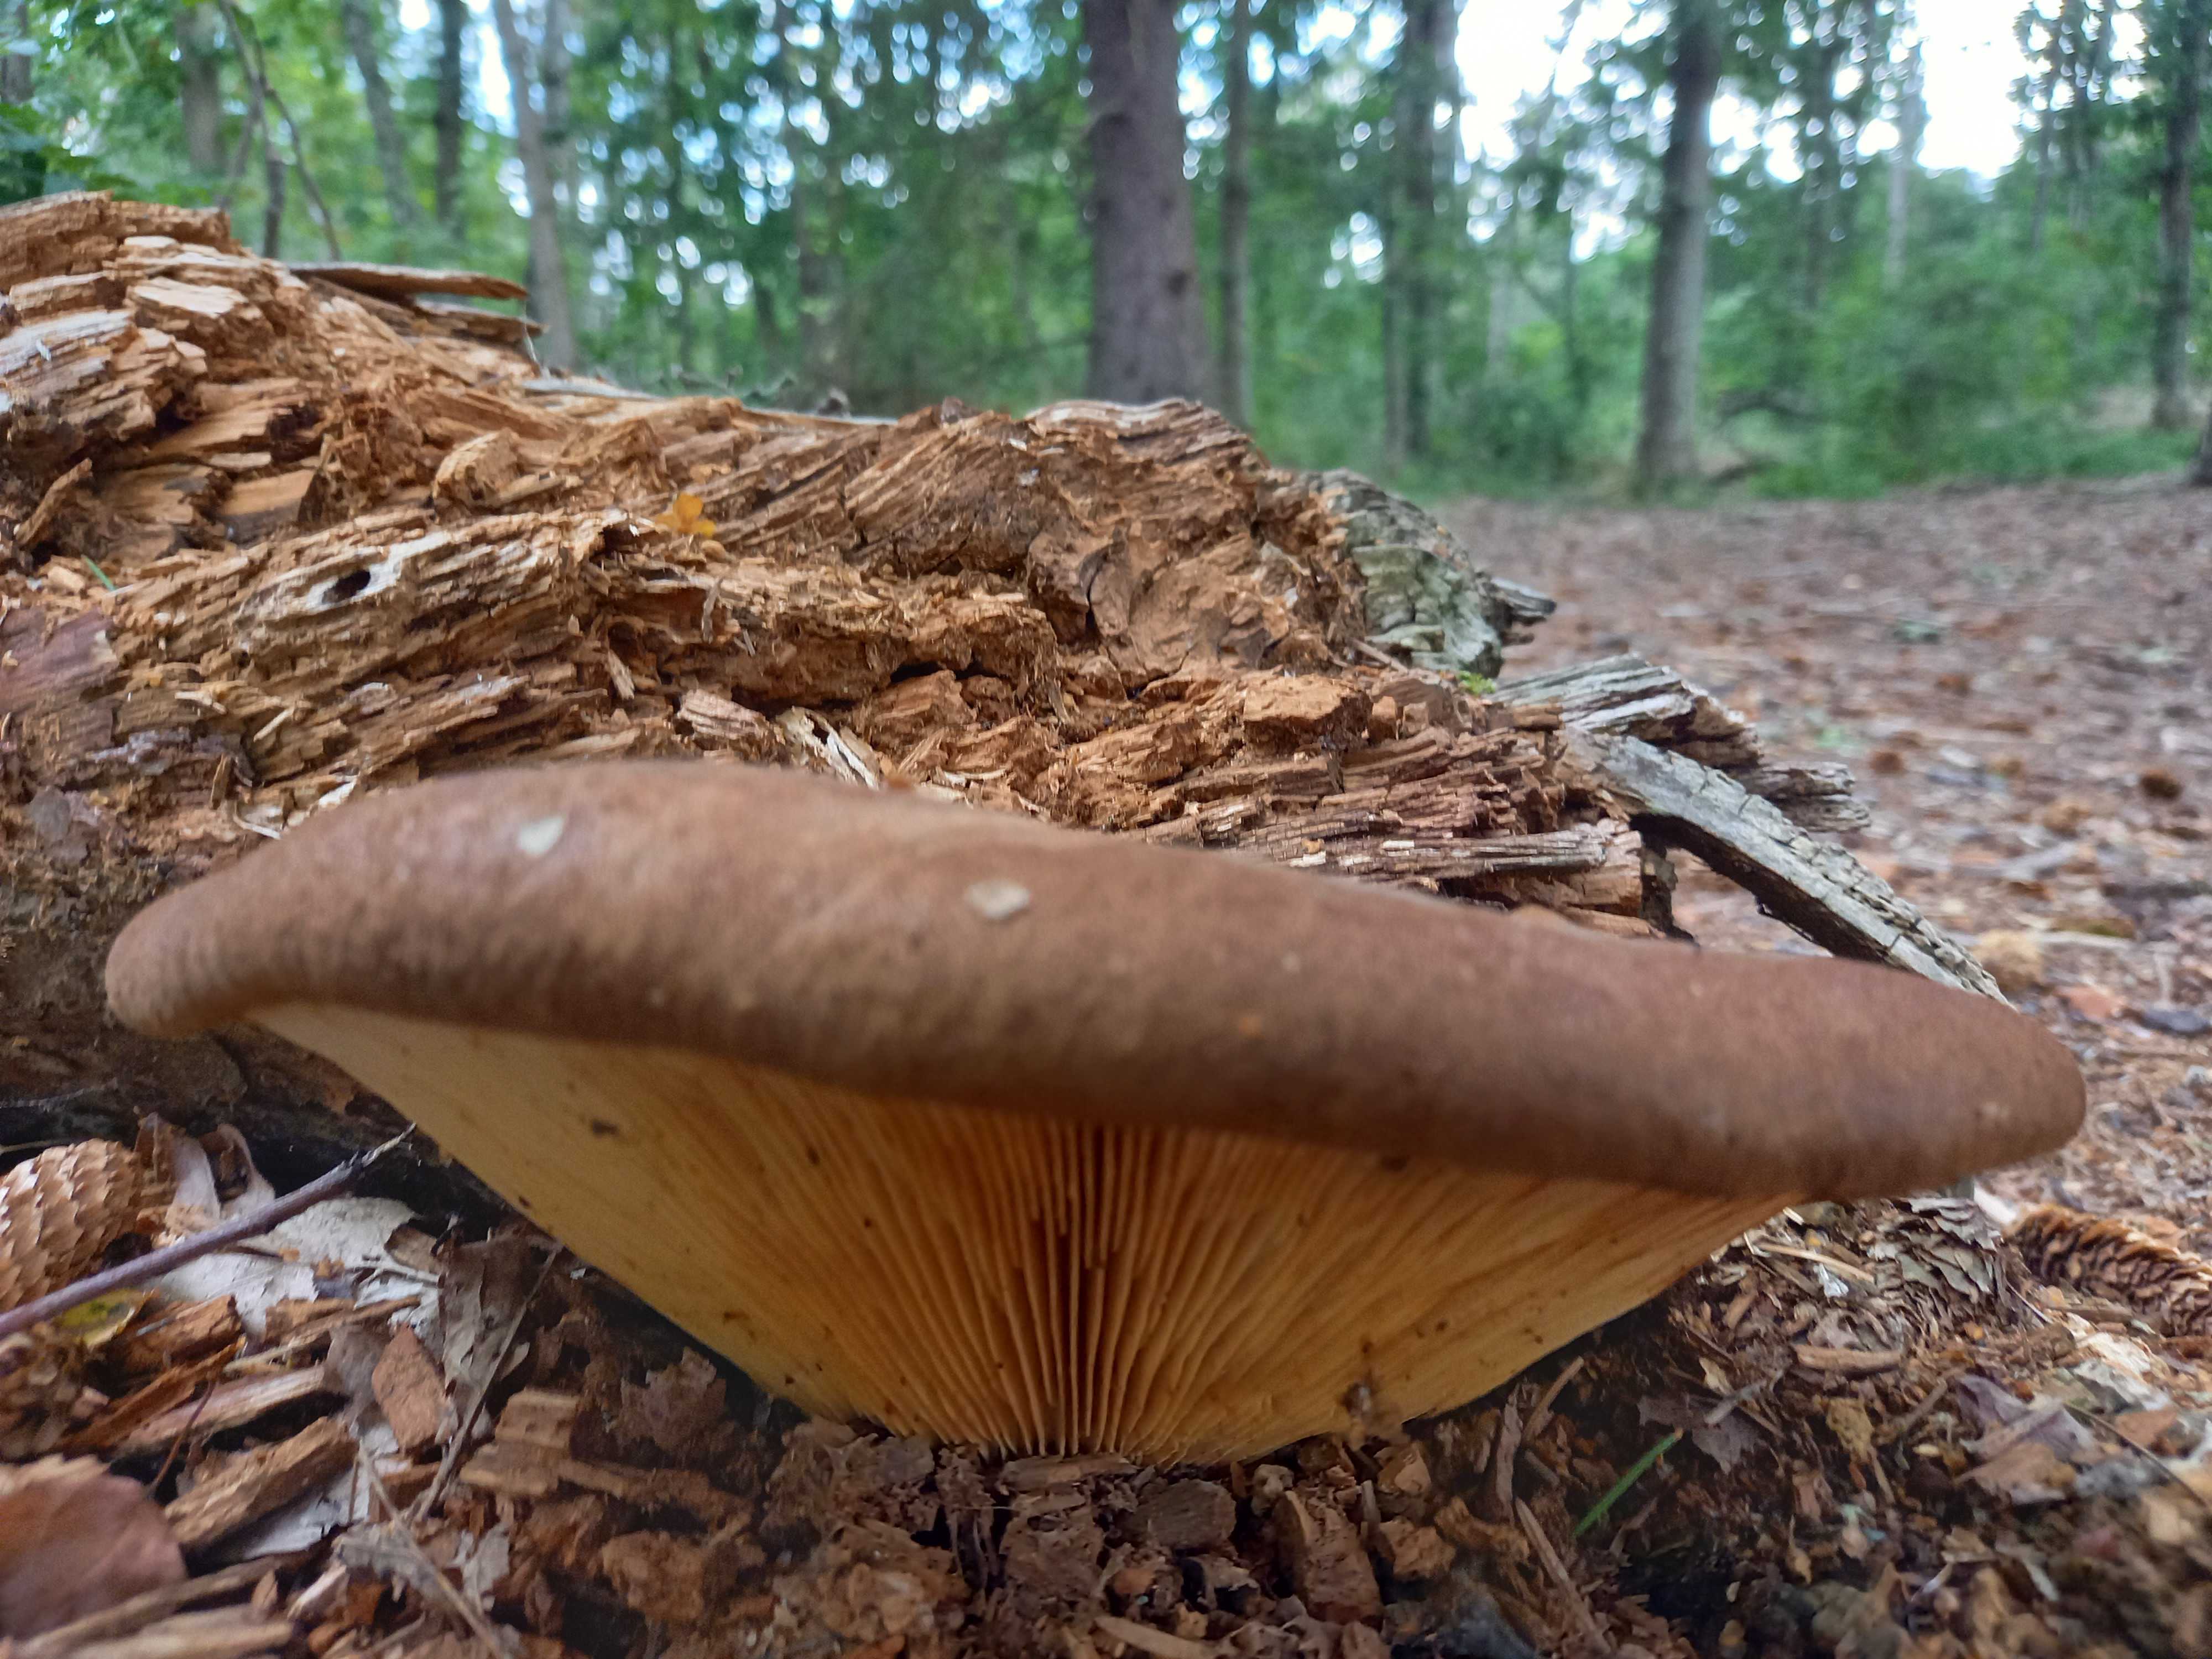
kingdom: Fungi
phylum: Basidiomycota
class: Agaricomycetes
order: Boletales
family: Tapinellaceae
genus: Tapinella
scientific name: Tapinella atrotomentosa
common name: sortfiltet viftesvamp
